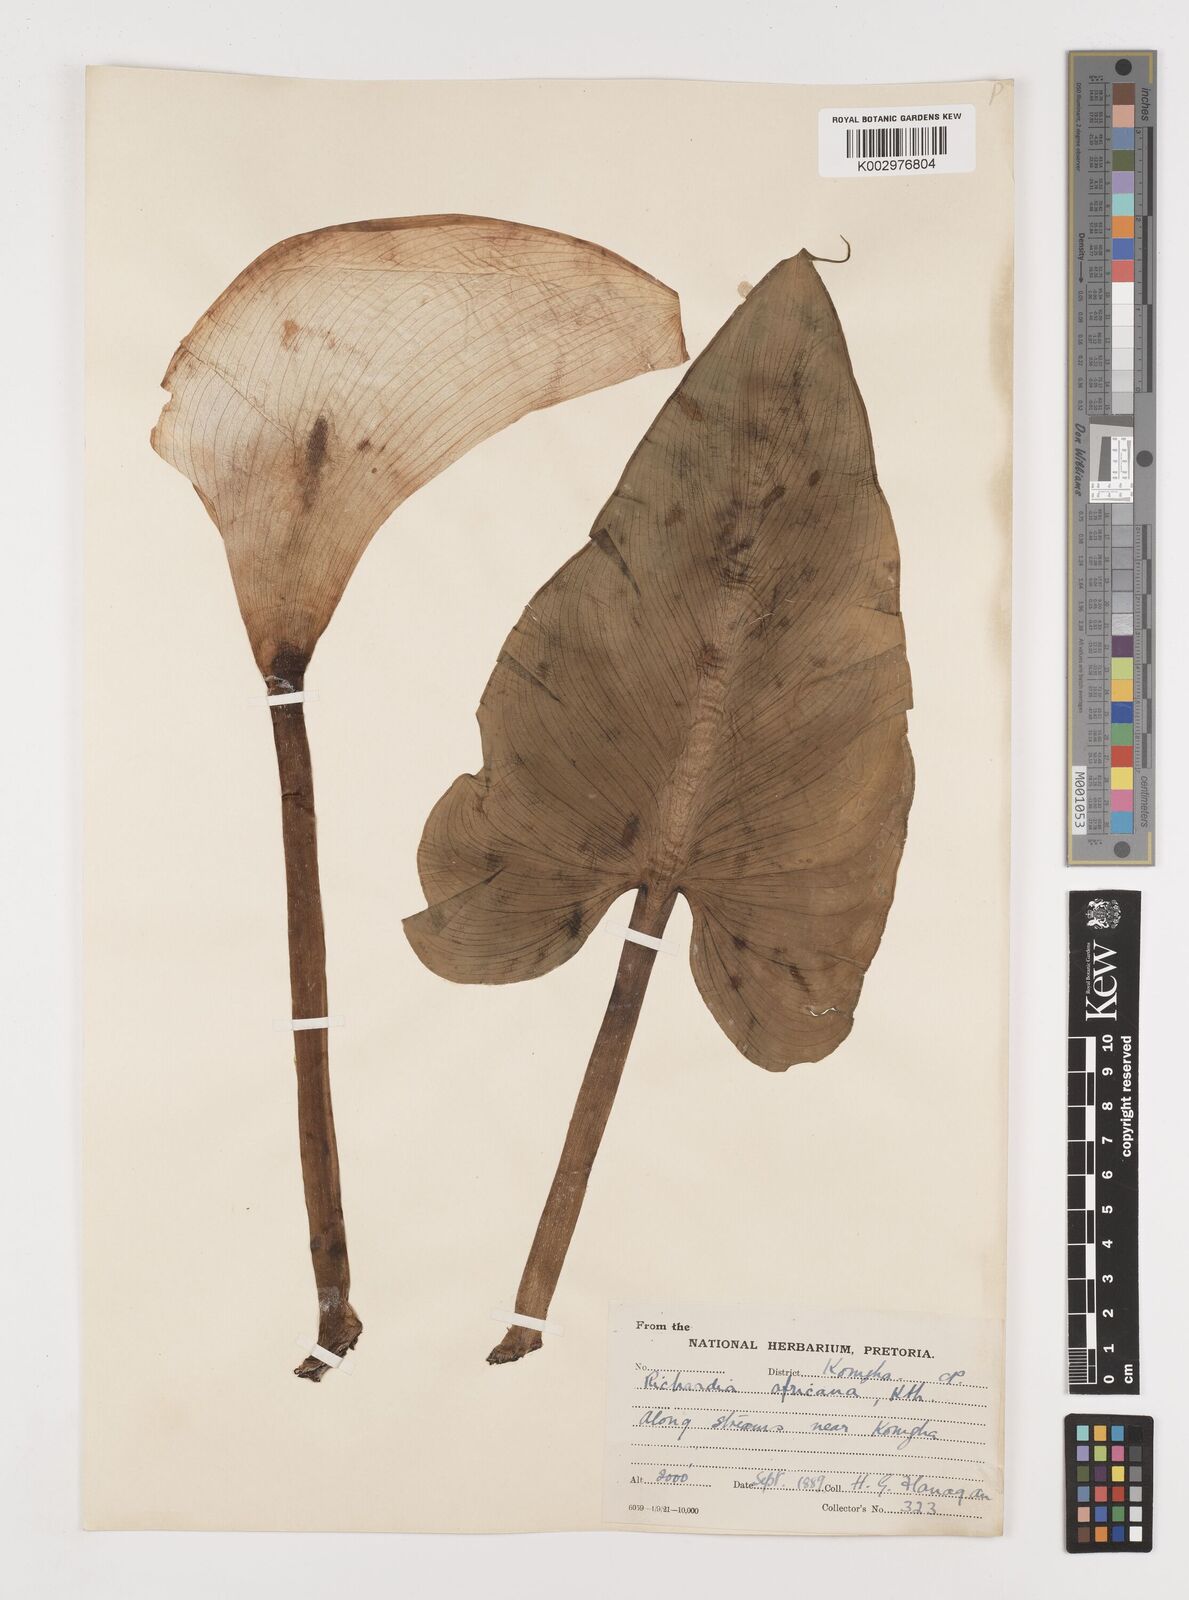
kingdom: Plantae
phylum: Tracheophyta
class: Liliopsida
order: Alismatales
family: Araceae
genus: Zantedeschia
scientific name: Zantedeschia aethiopica
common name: Altar-lily
